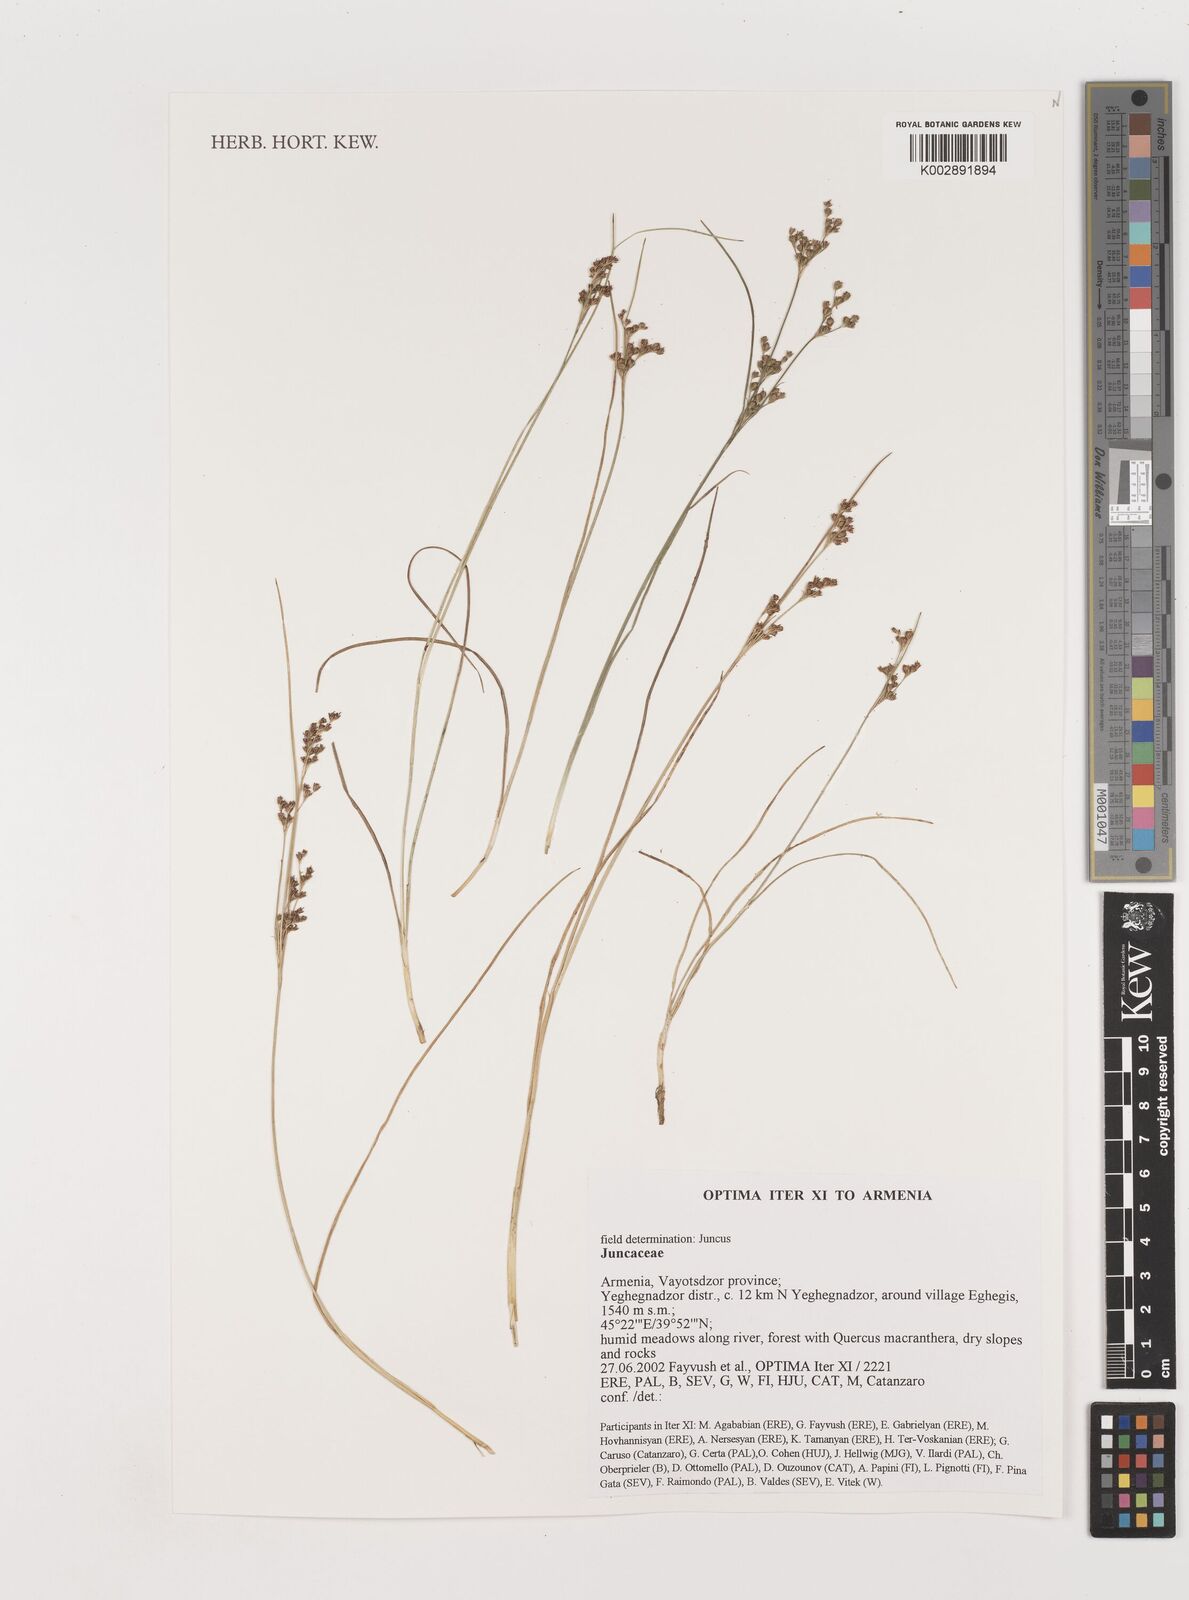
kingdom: Plantae
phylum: Tracheophyta
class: Liliopsida
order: Poales
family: Juncaceae
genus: Juncus
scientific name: Juncus
